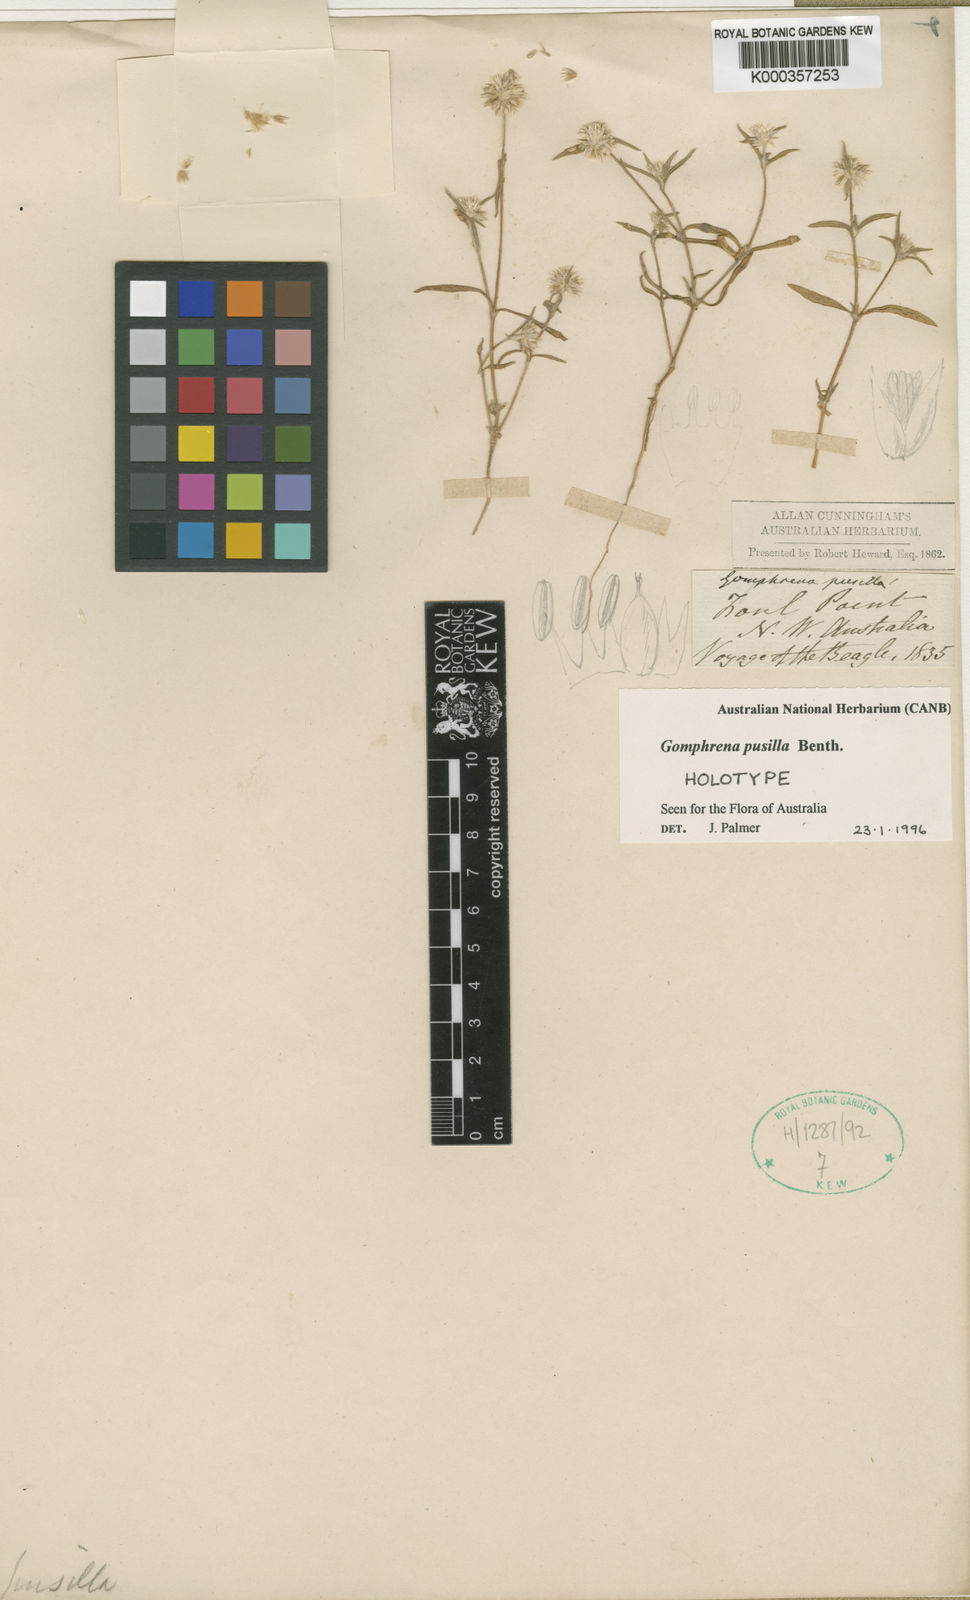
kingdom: Plantae
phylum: Tracheophyta
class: Magnoliopsida
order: Caryophyllales
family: Amaranthaceae
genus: Gomphrena
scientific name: Gomphrena pusilla
